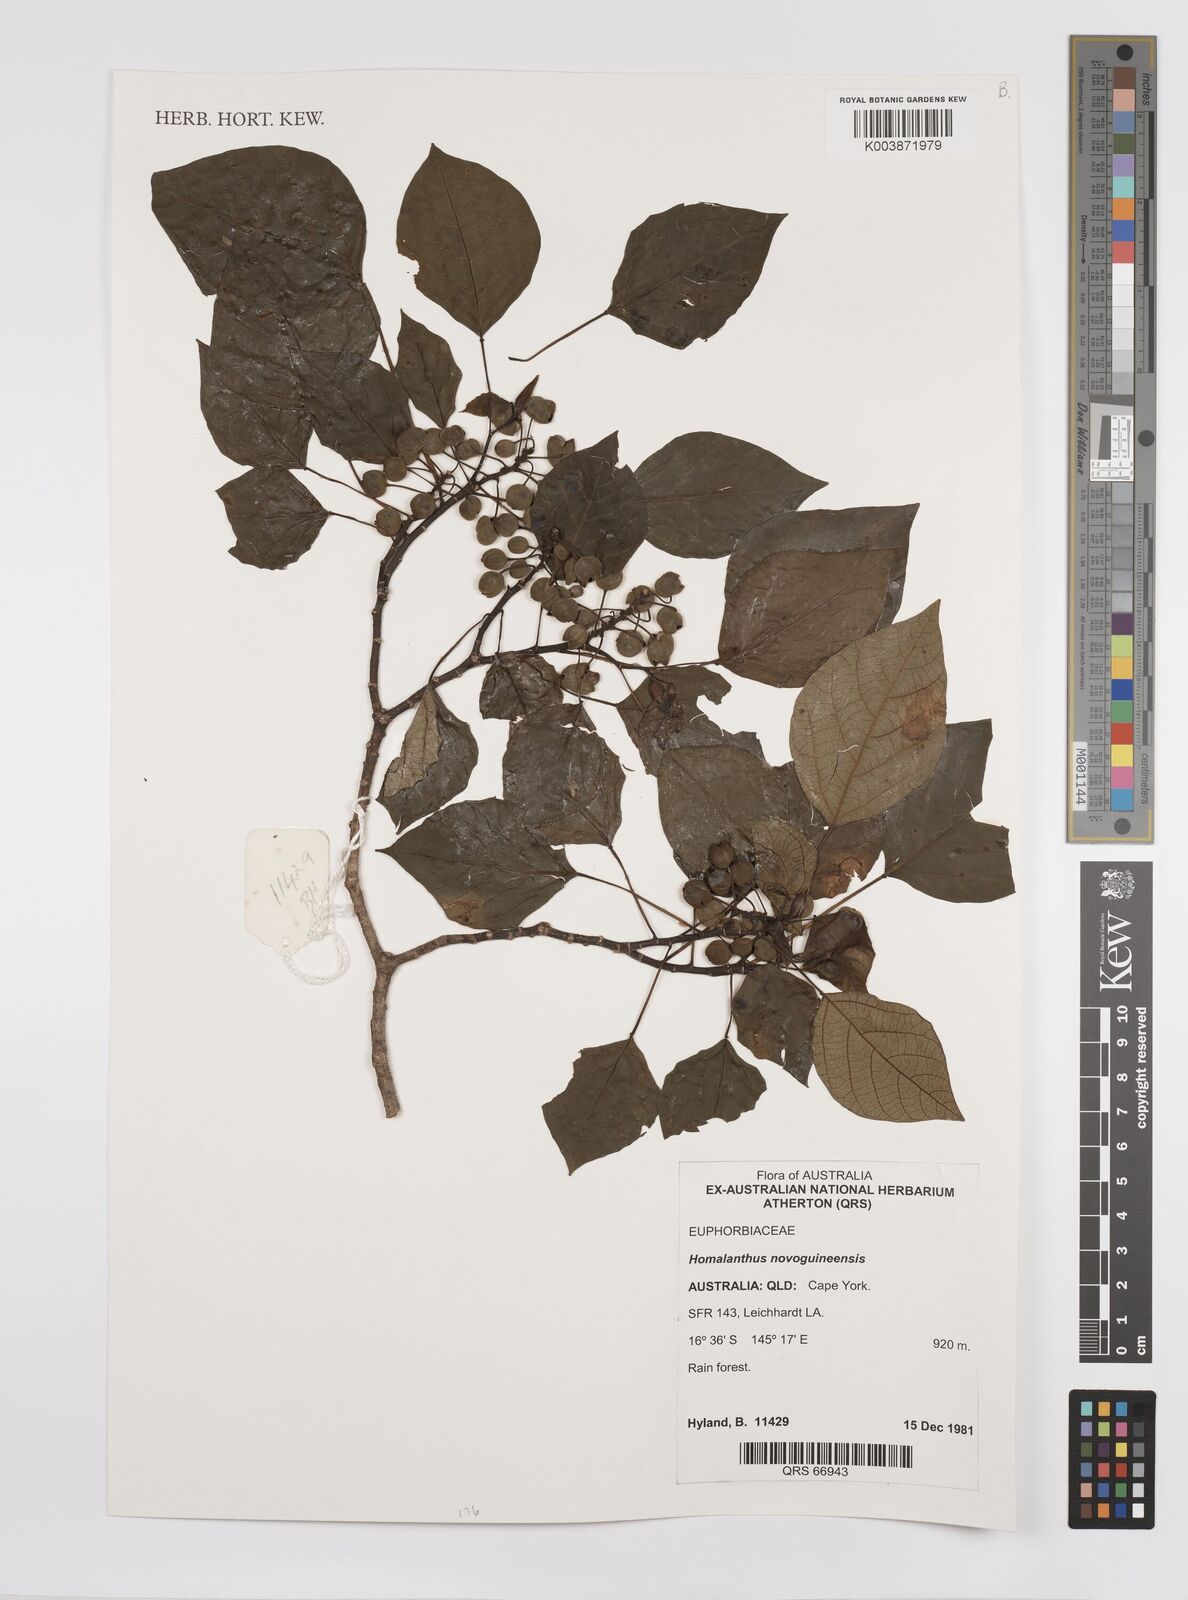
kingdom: Plantae
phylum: Tracheophyta
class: Magnoliopsida
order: Malpighiales
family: Euphorbiaceae
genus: Homalanthus
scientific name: Homalanthus novoguineensis
